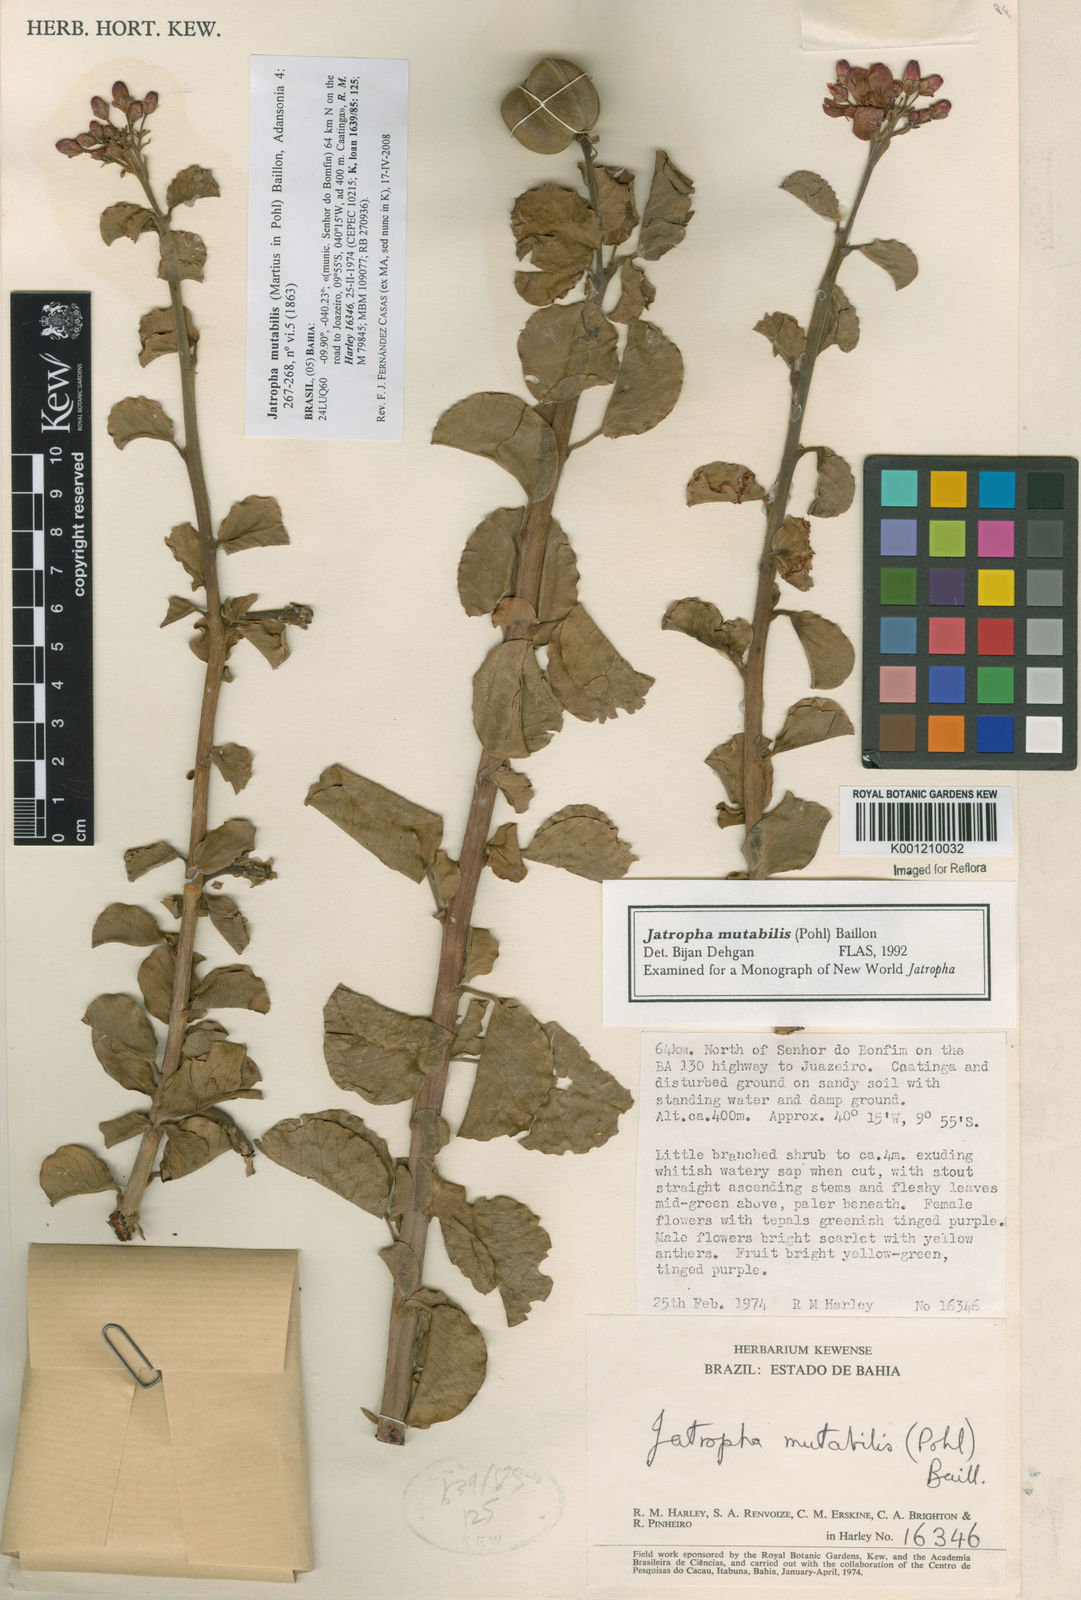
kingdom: Plantae
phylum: Tracheophyta
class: Magnoliopsida
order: Malpighiales
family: Euphorbiaceae
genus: Jatropha
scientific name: Jatropha mutabilis
